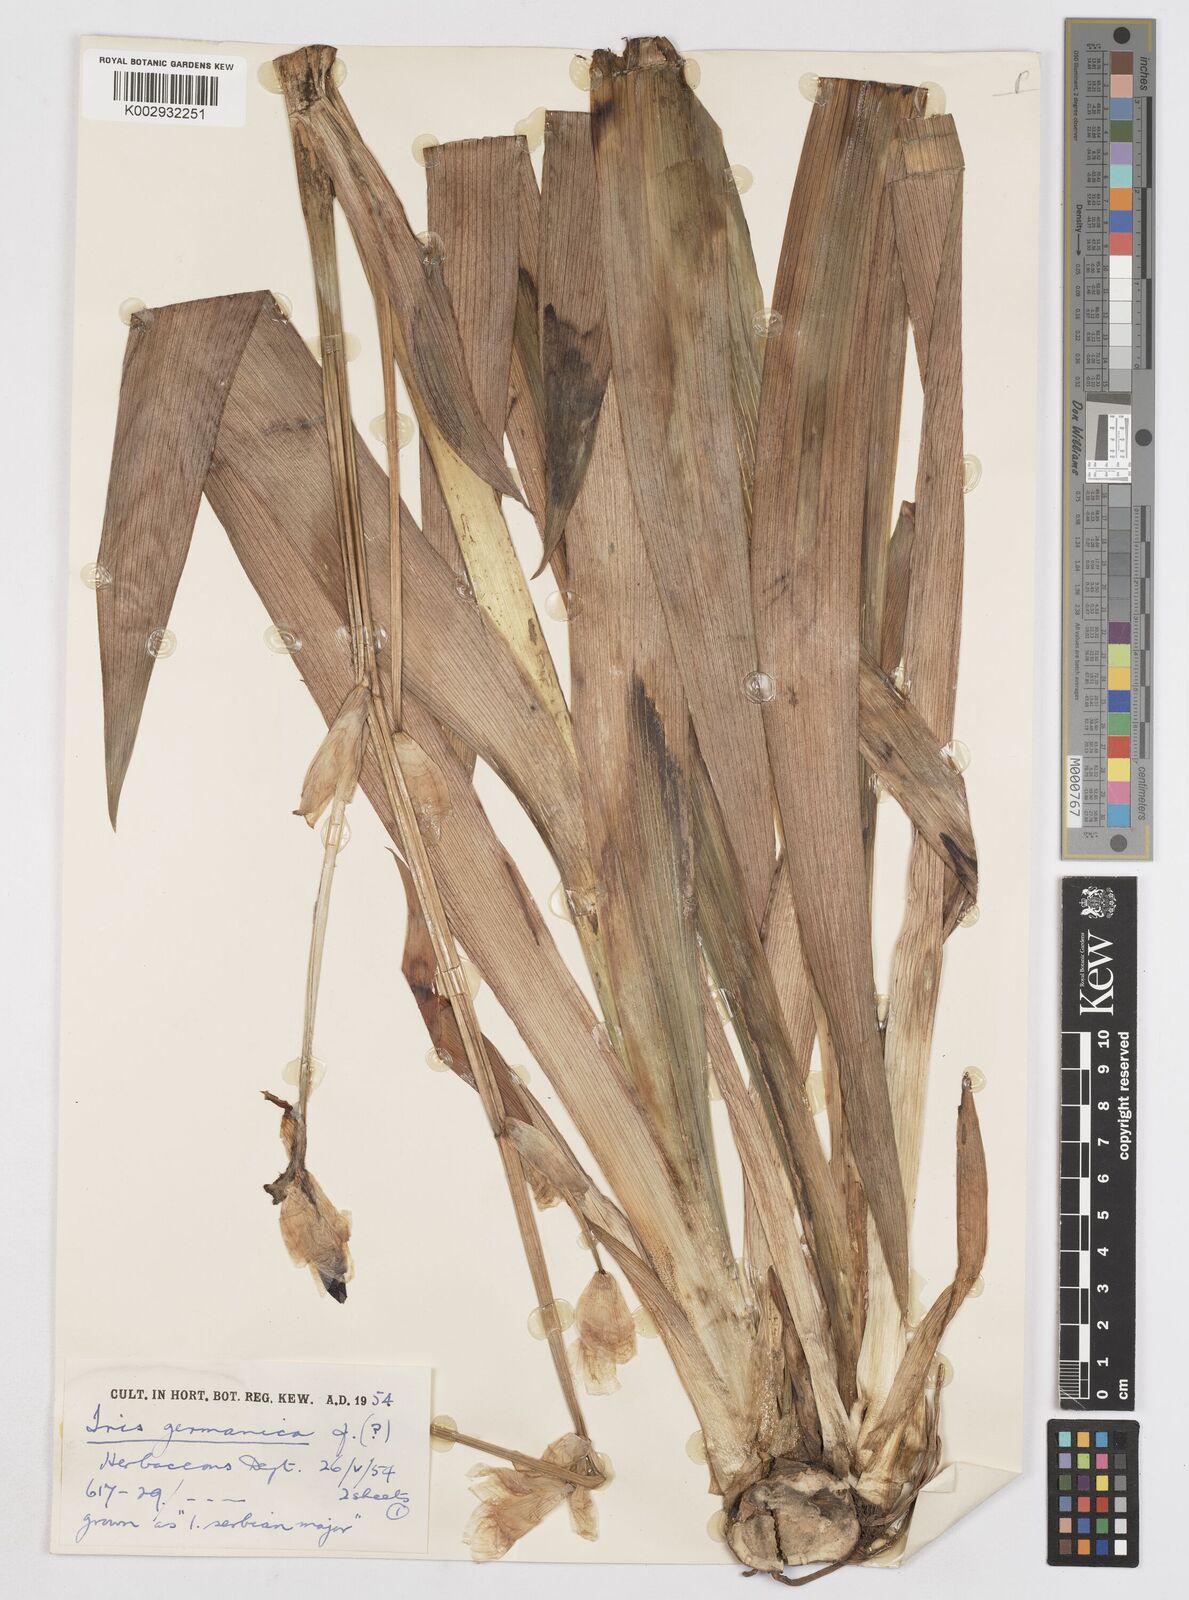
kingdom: Plantae
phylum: Tracheophyta
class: Liliopsida
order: Asparagales
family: Iridaceae
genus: Iris
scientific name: Iris
